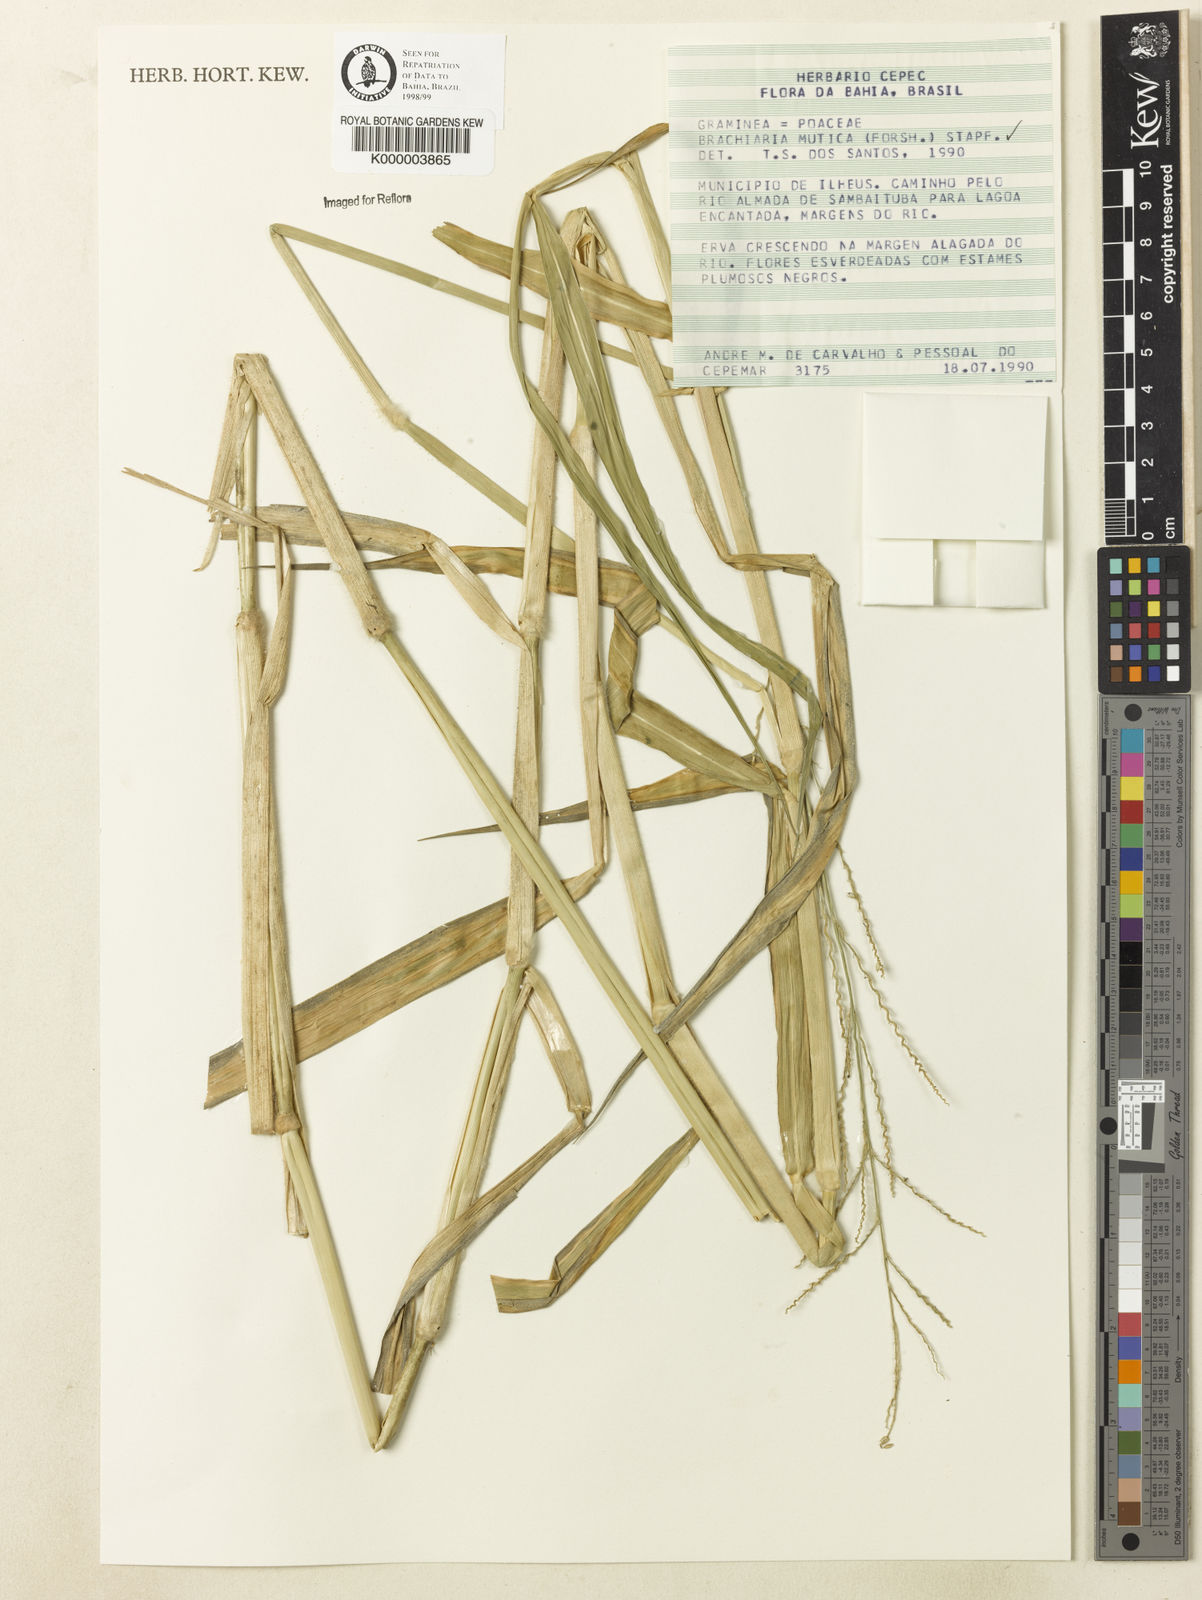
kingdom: Plantae
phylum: Tracheophyta
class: Liliopsida
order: Poales
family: Poaceae
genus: Urochloa
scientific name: Urochloa mutica
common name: Para grass
